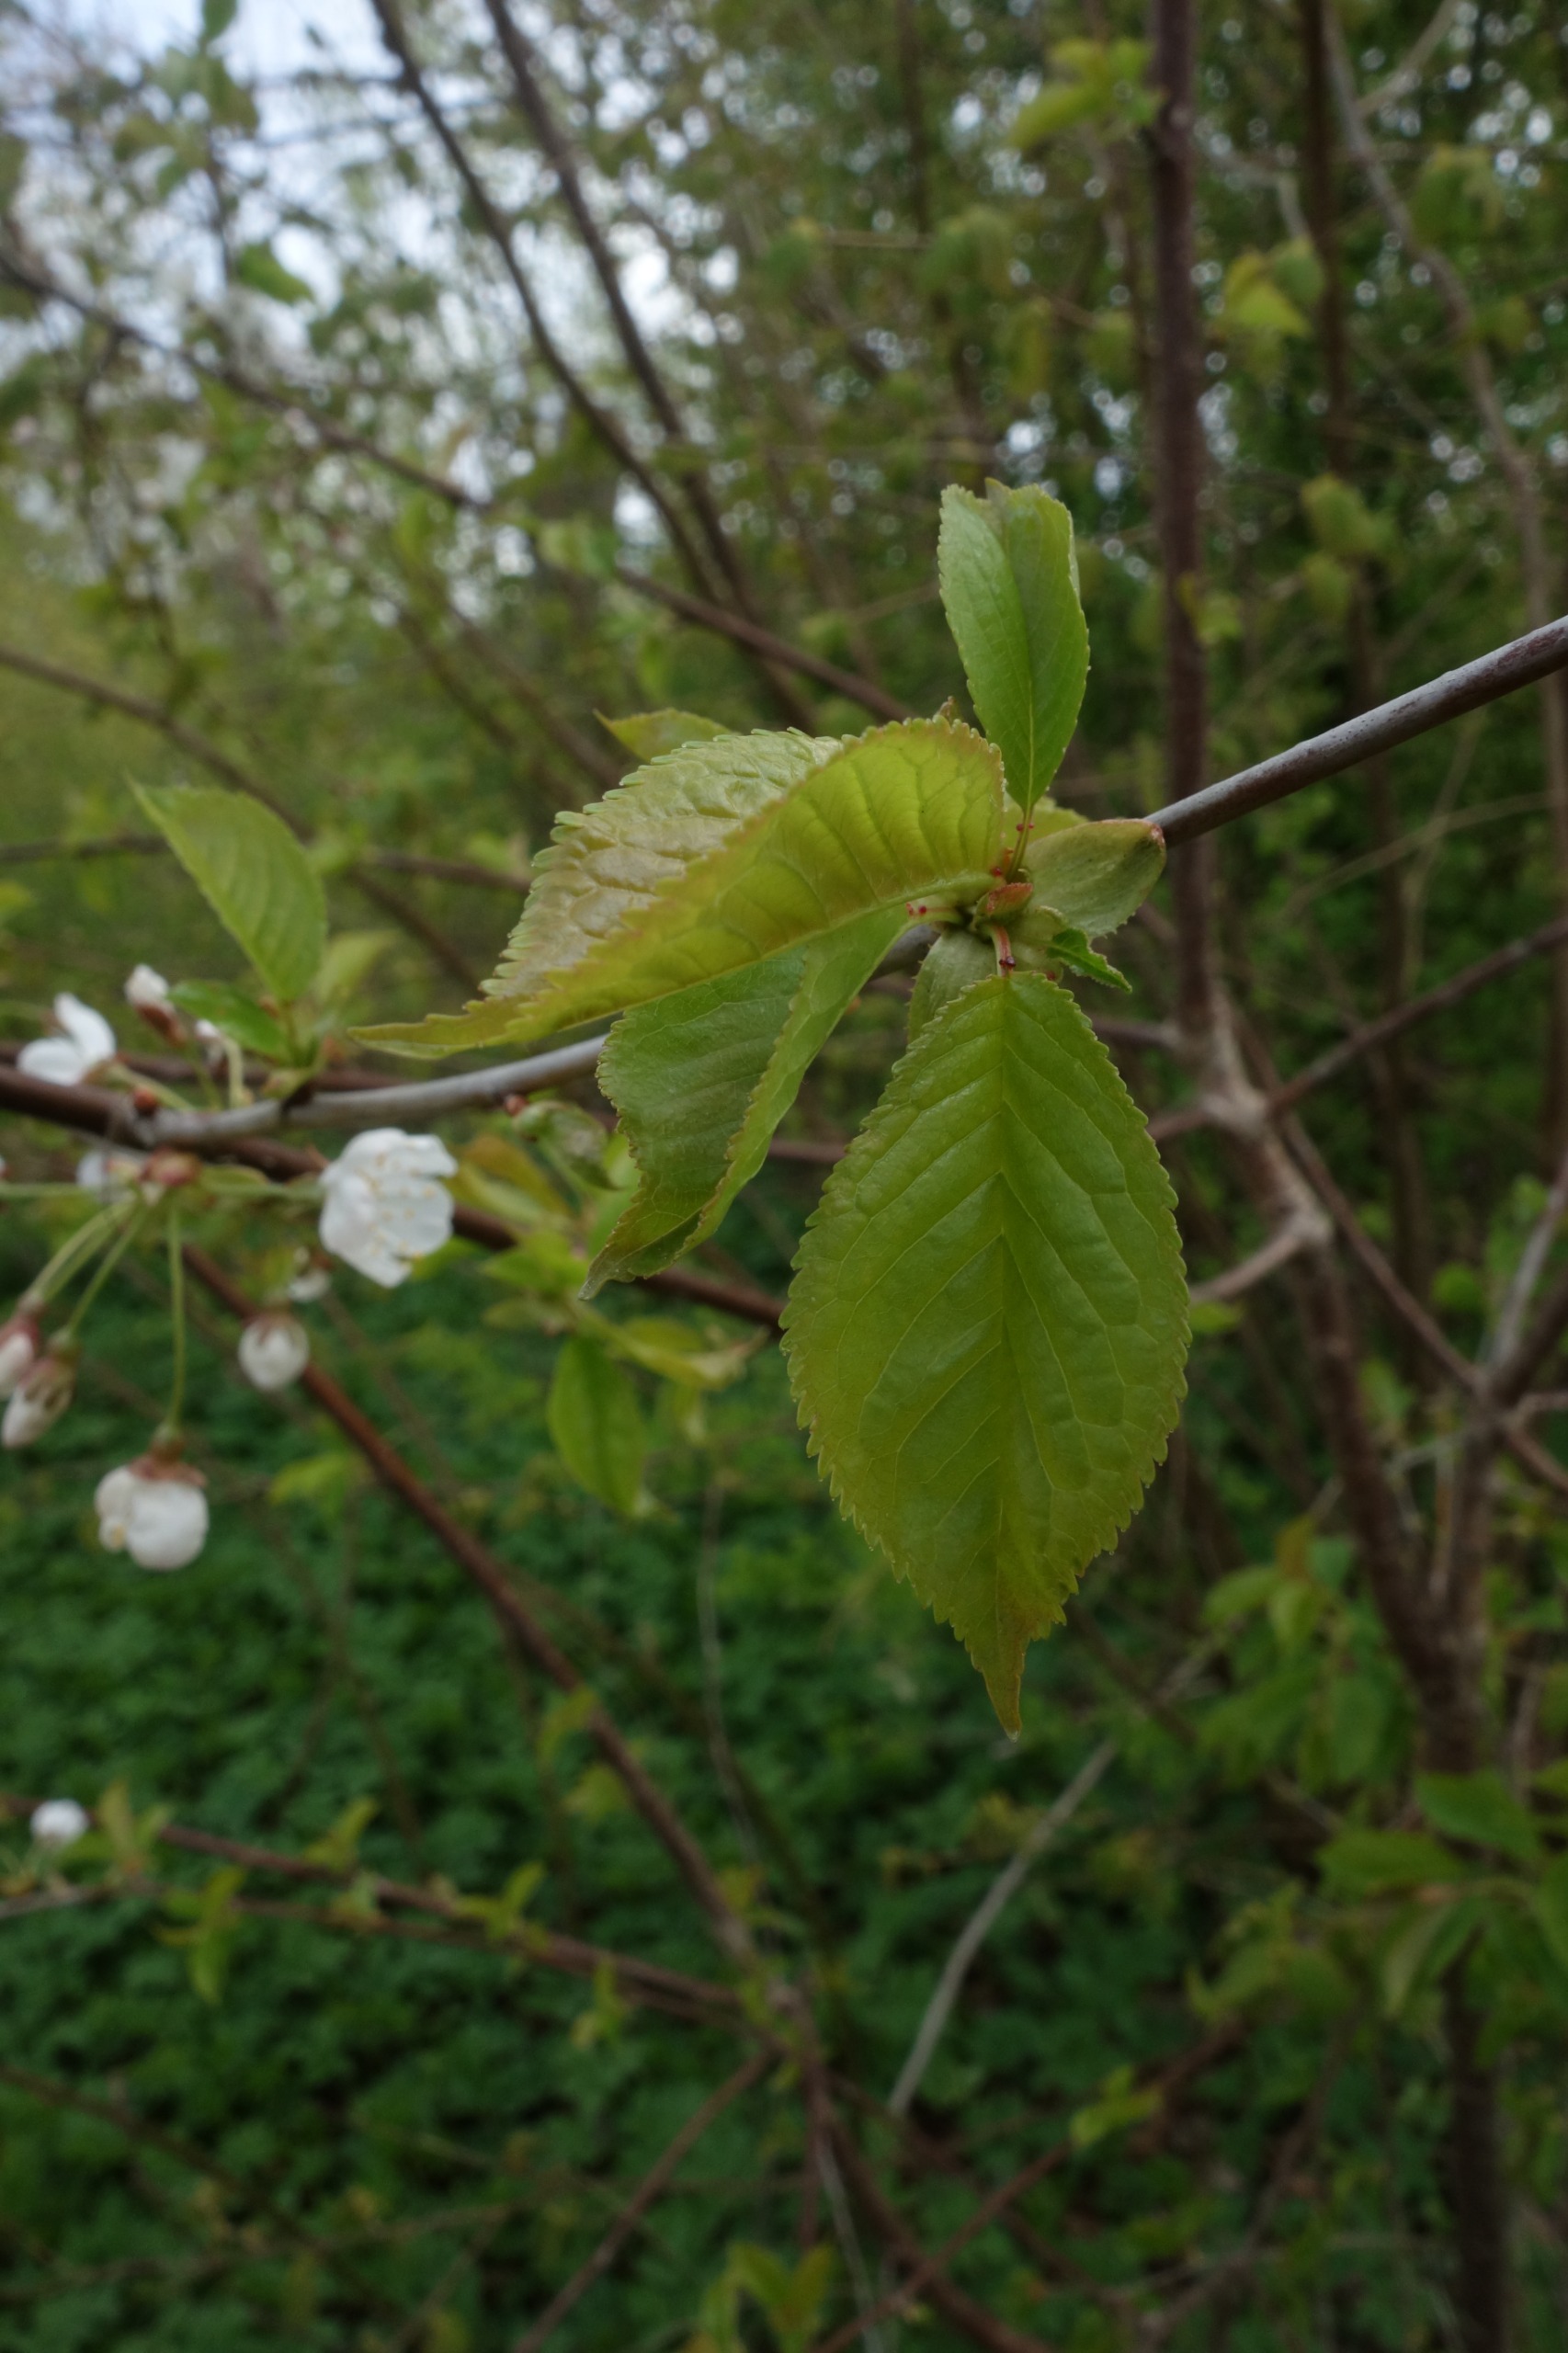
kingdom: Plantae
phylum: Tracheophyta
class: Magnoliopsida
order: Rosales
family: Rosaceae
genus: Prunus
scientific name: Prunus avium
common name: Fugle-kirsebær
